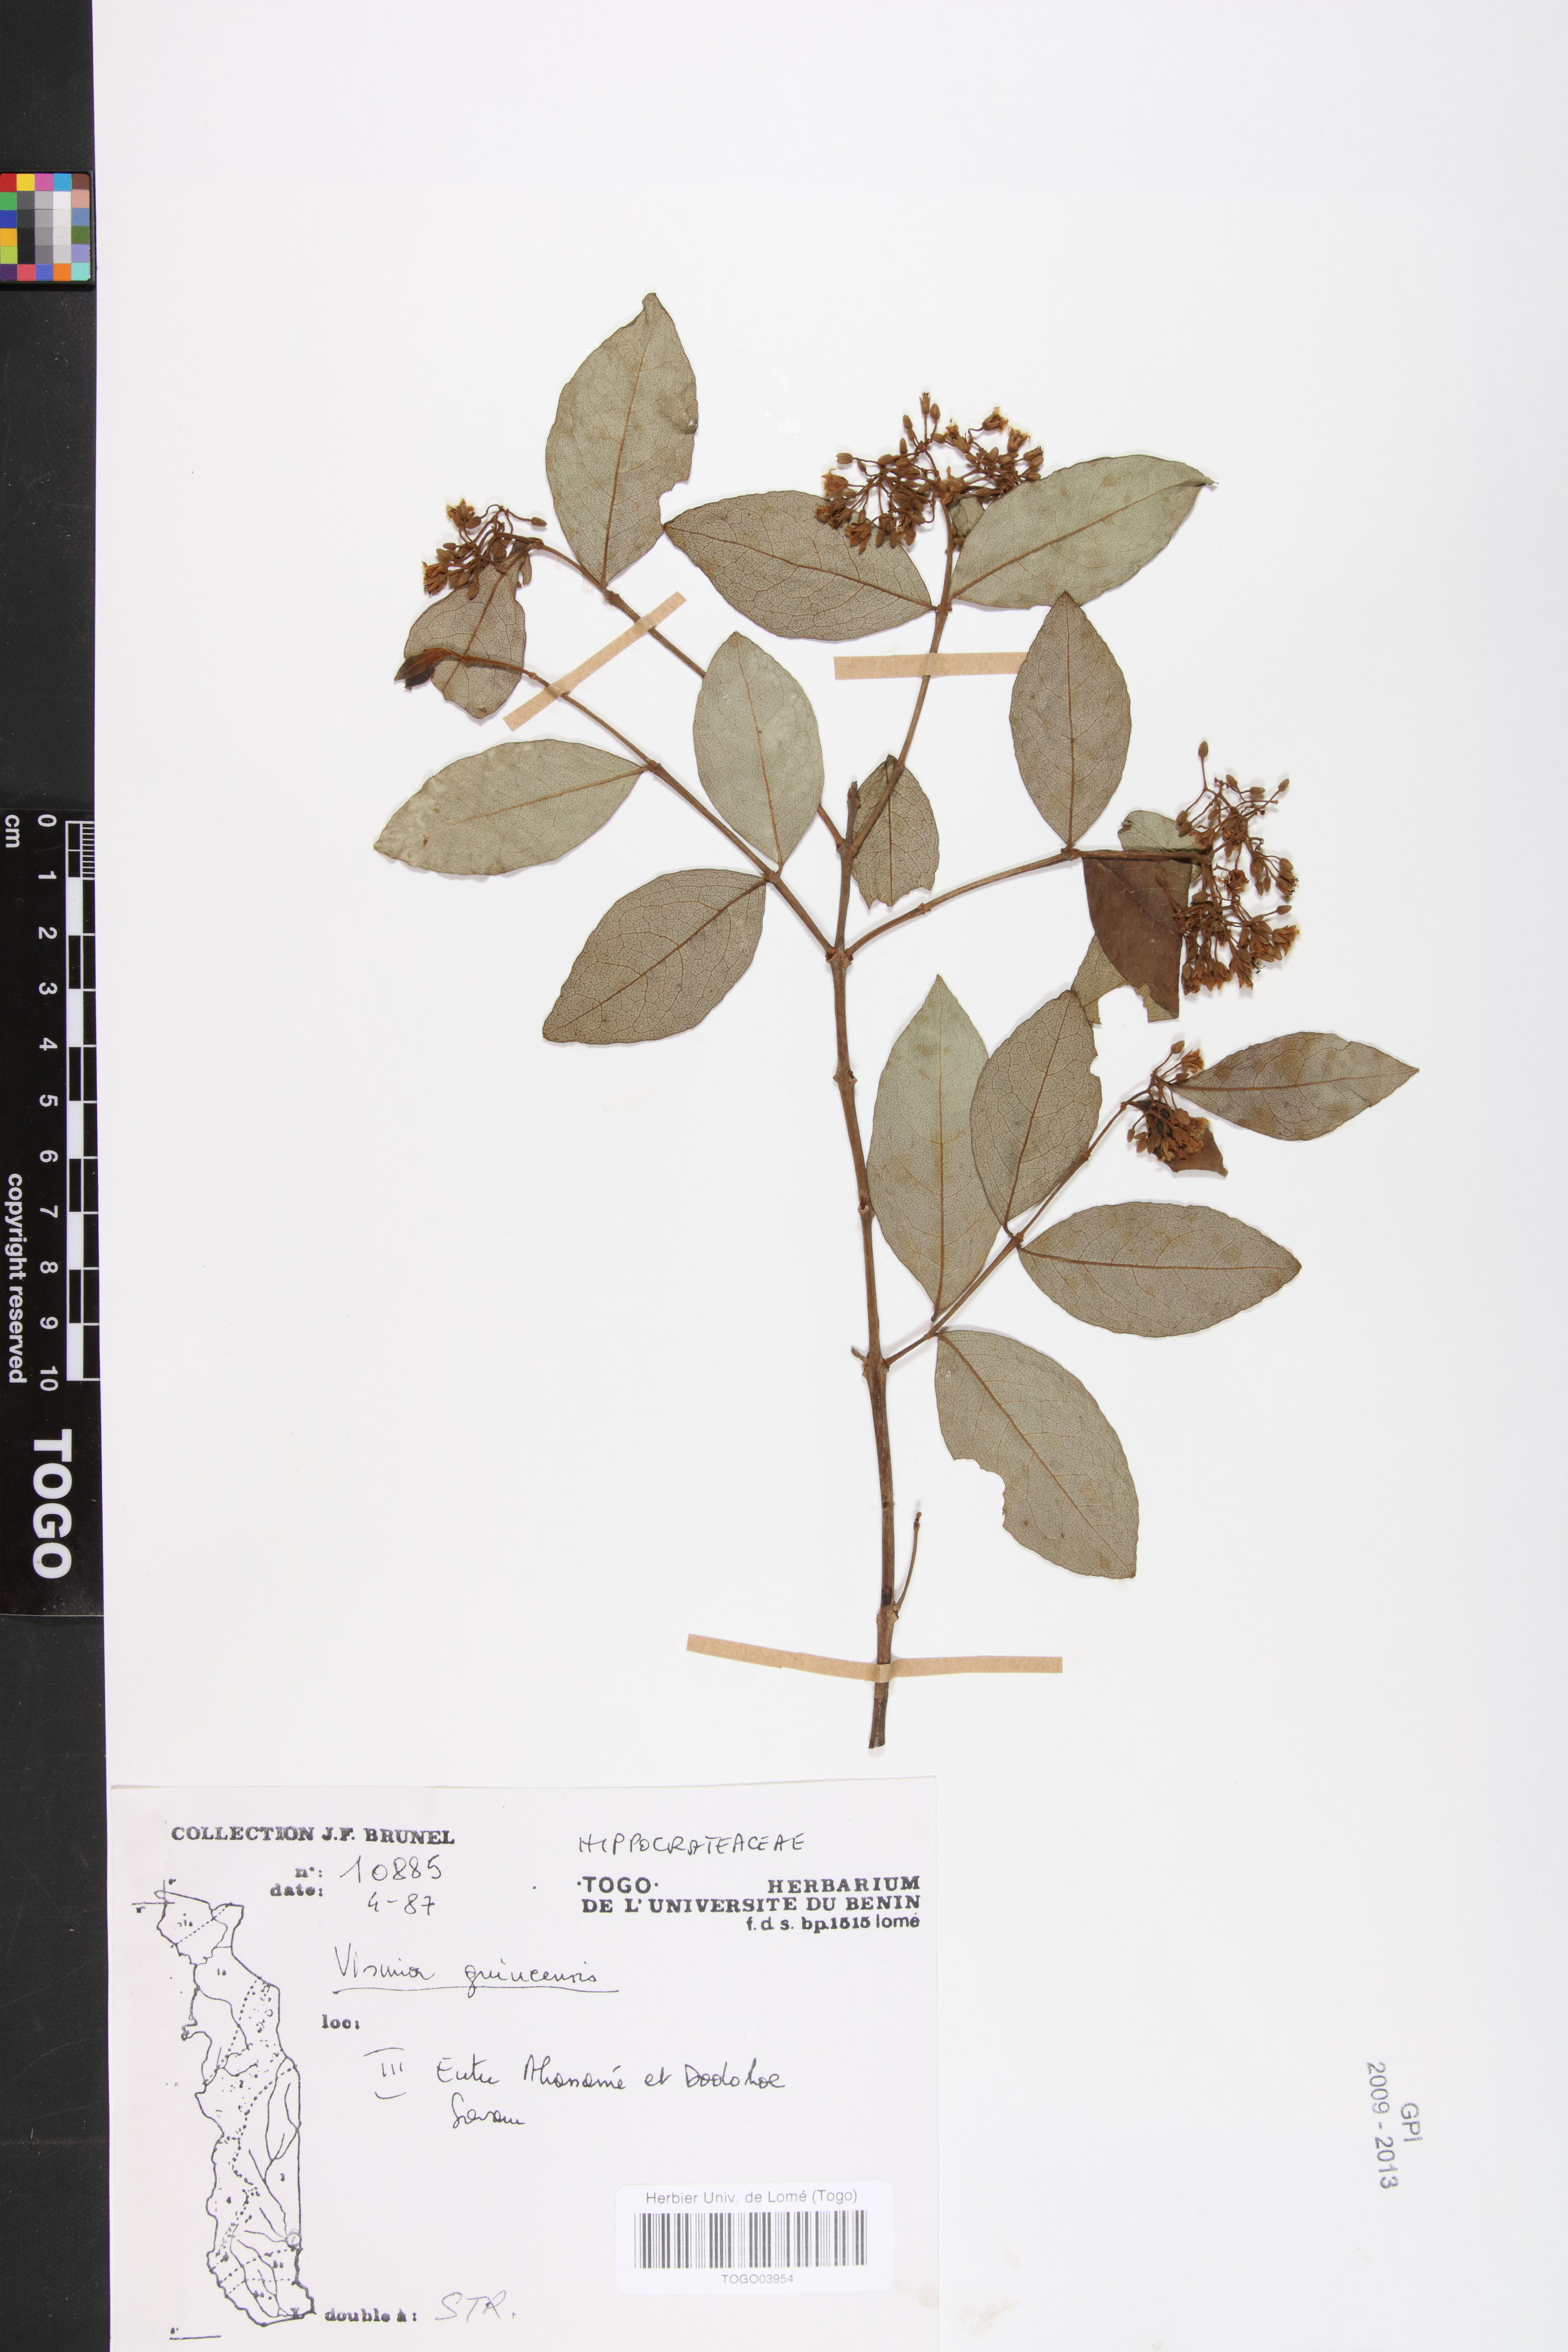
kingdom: Plantae
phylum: Tracheophyta
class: Magnoliopsida
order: Malpighiales
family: Hypericaceae
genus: Psorospermum
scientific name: Psorospermum guineense
